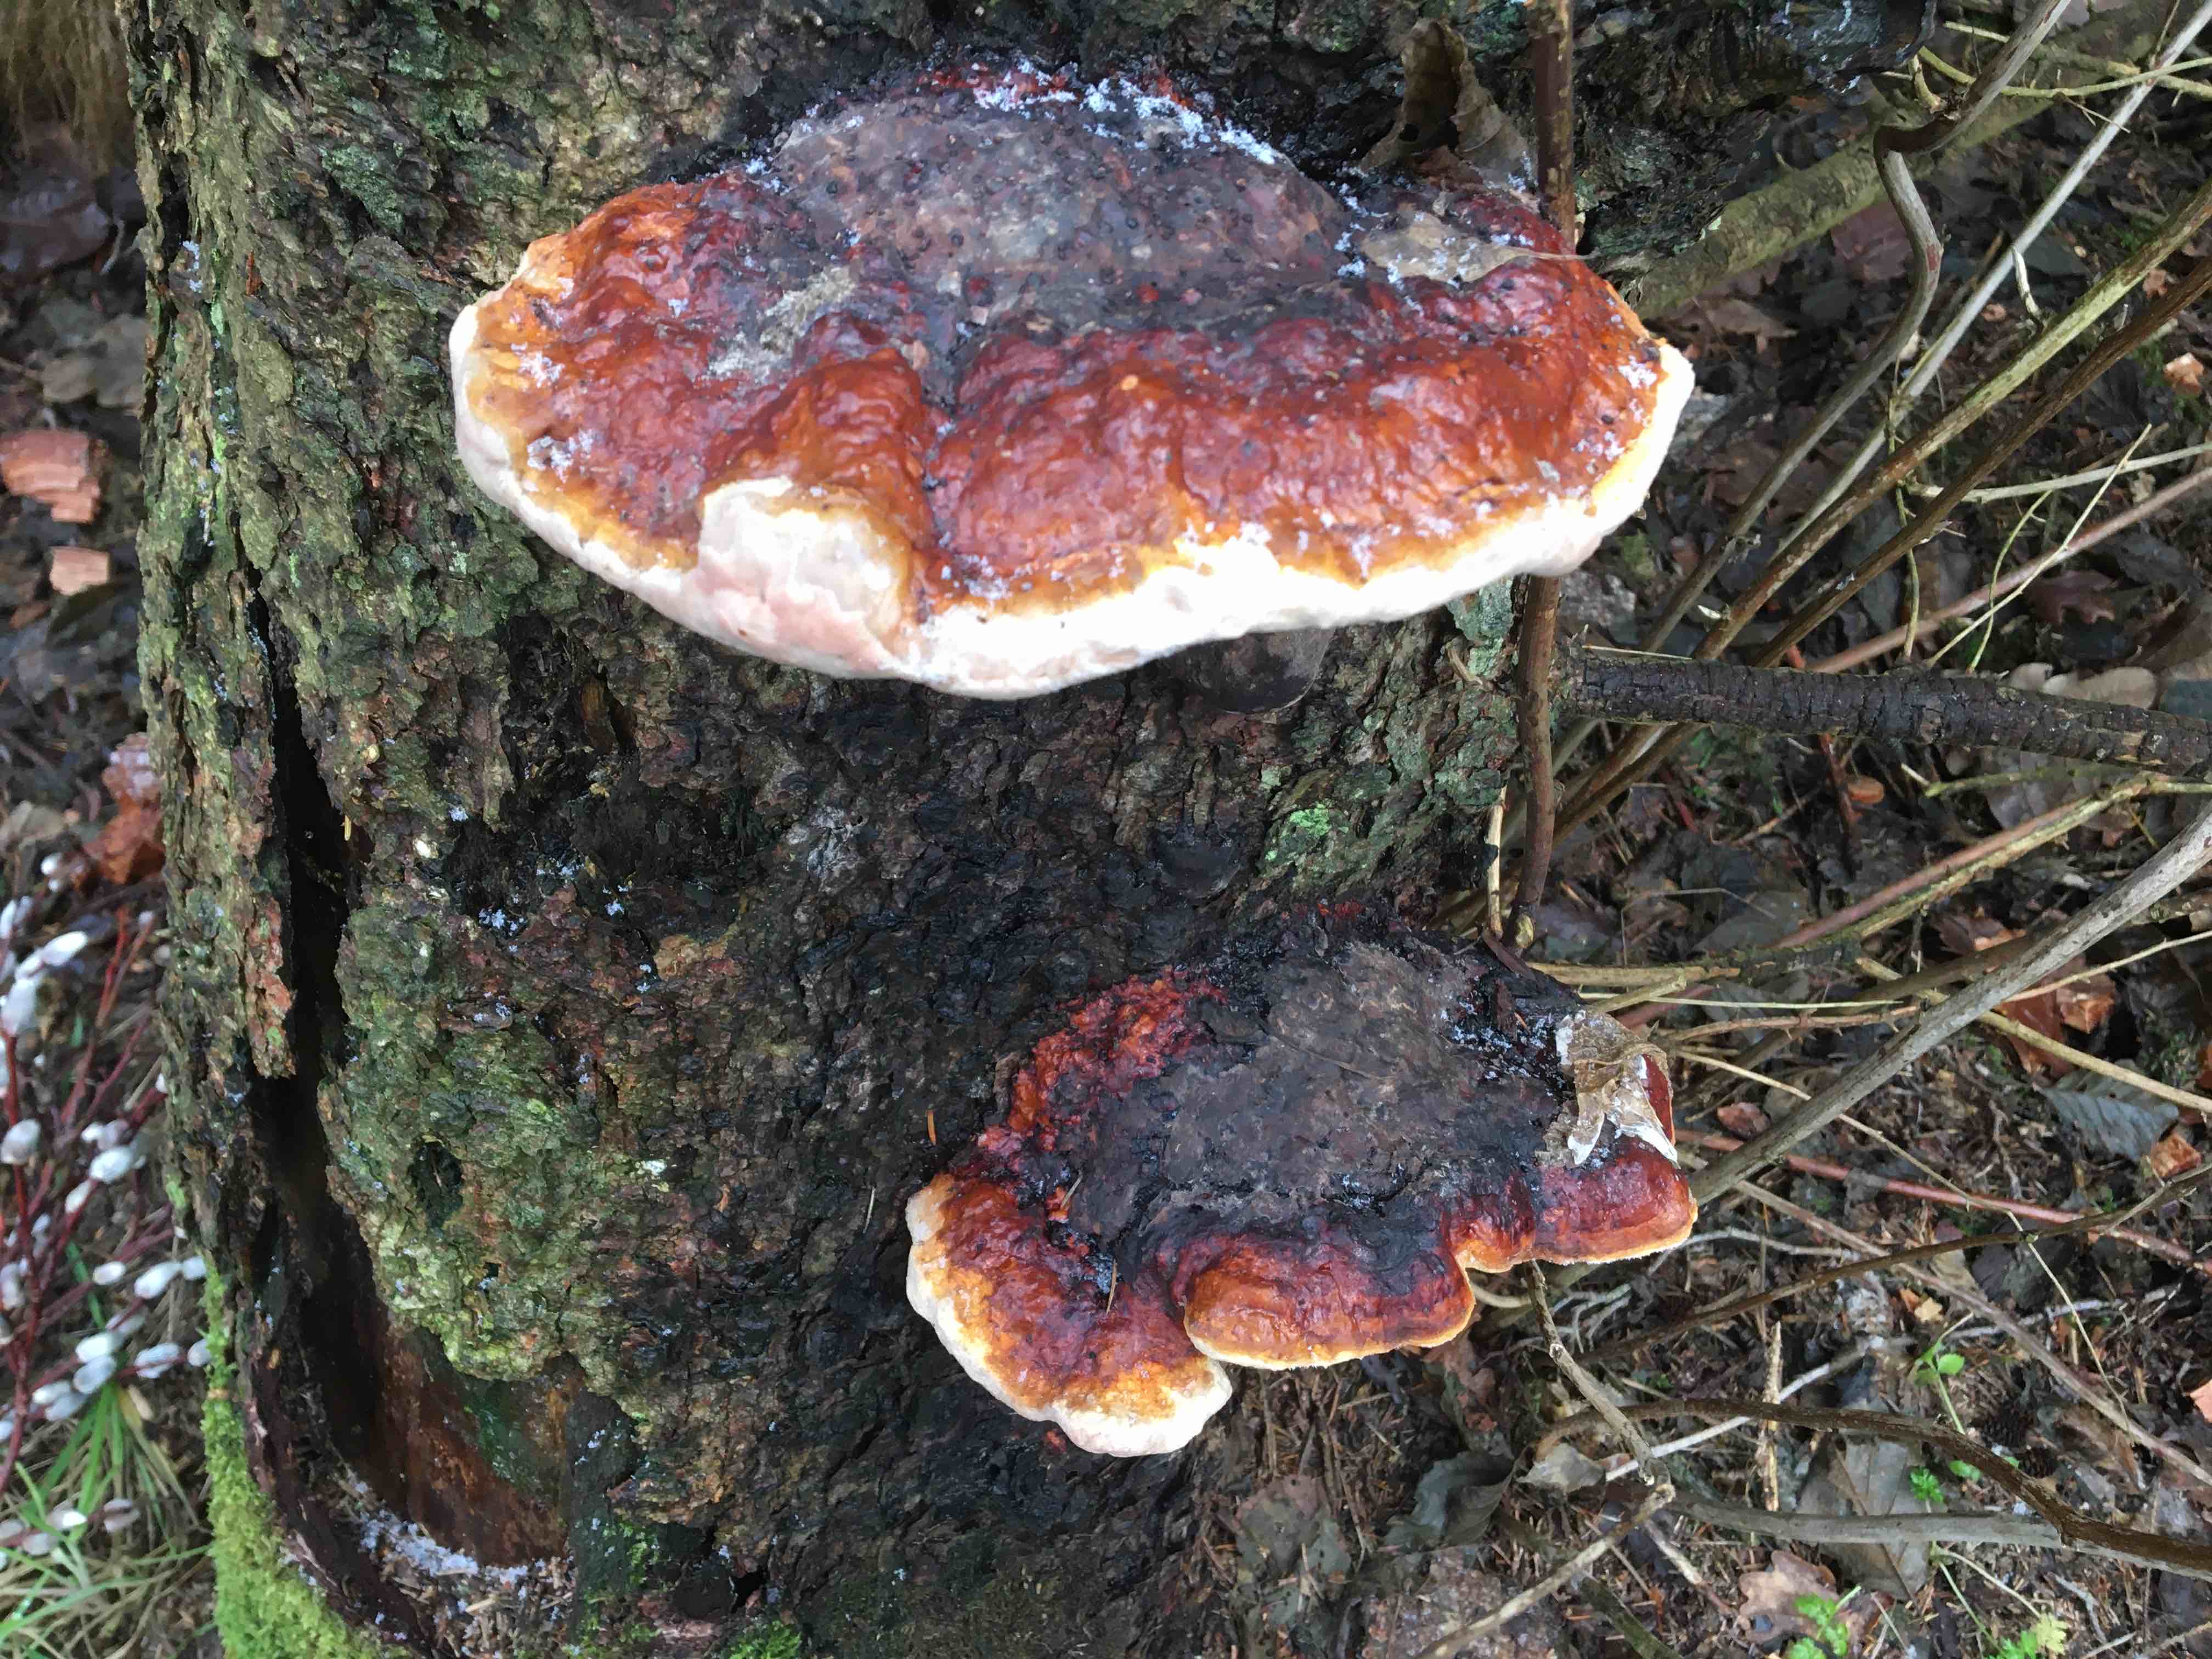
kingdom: Fungi
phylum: Basidiomycota
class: Agaricomycetes
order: Polyporales
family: Fomitopsidaceae
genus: Fomitopsis
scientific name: Fomitopsis pinicola
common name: randbæltet hovporesvamp
